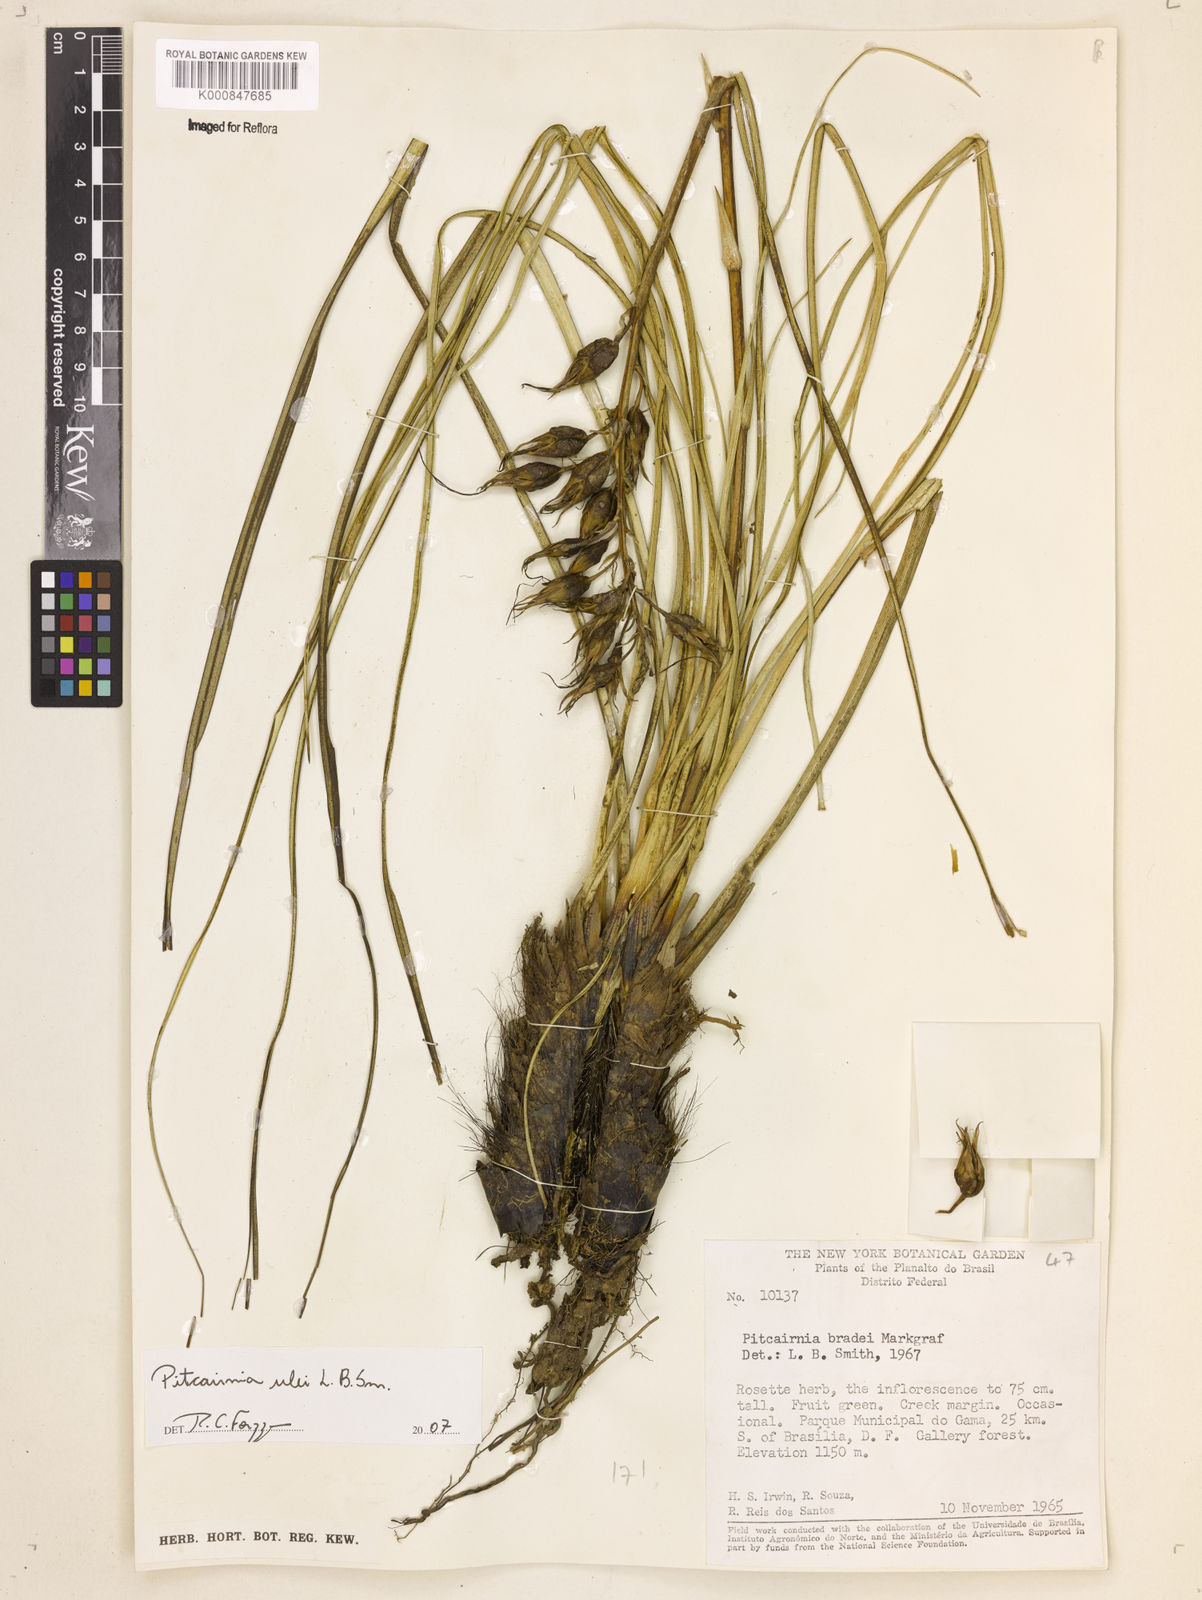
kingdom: Plantae
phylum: Tracheophyta
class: Liliopsida
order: Poales
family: Bromeliaceae
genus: Pitcairnia
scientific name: Pitcairnia ulei
